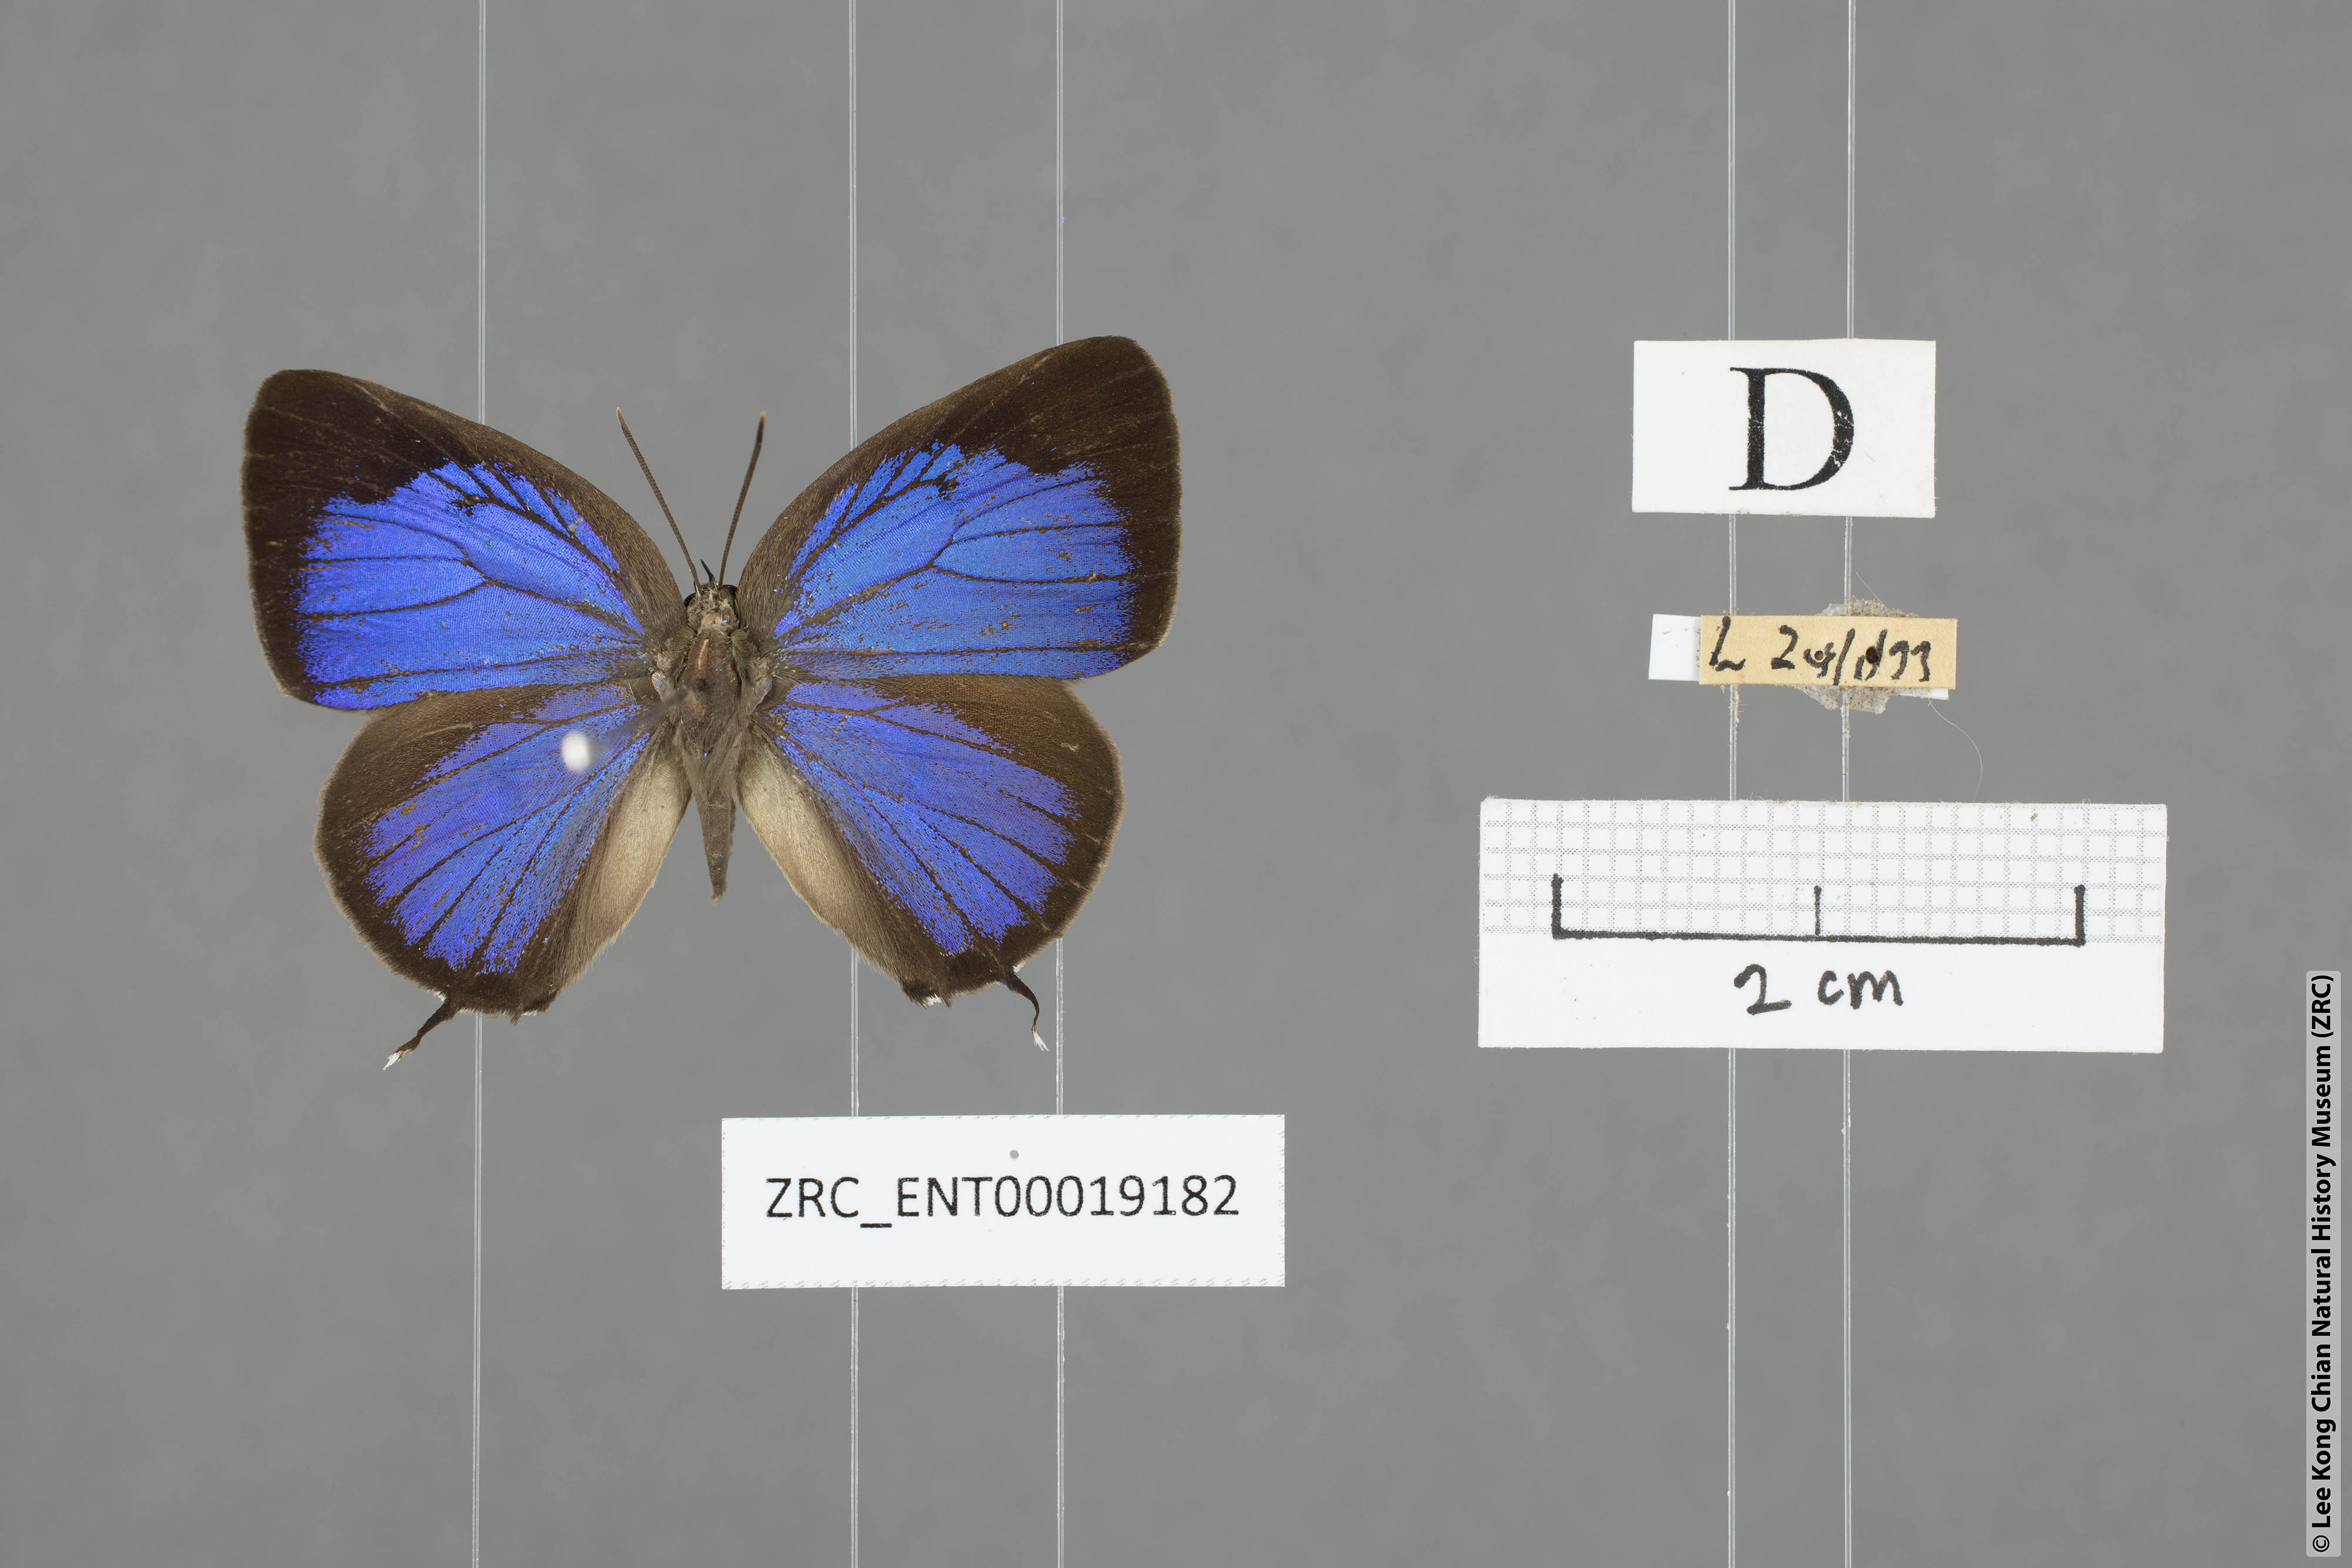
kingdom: Animalia
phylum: Arthropoda
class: Insecta
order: Lepidoptera
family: Lycaenidae
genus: Arhopala
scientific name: Arhopala ariana
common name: Pinkish-washed oakblue
